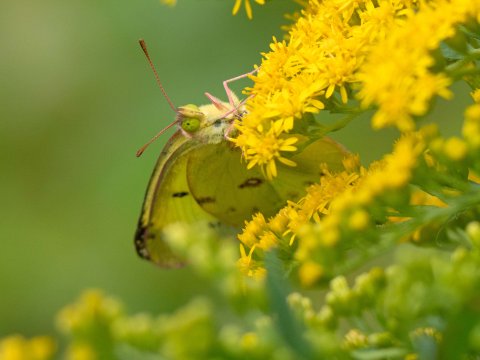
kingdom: Animalia
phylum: Arthropoda
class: Insecta
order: Lepidoptera
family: Pieridae
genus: Colias
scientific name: Colias philodice
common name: Clouded Sulphur
